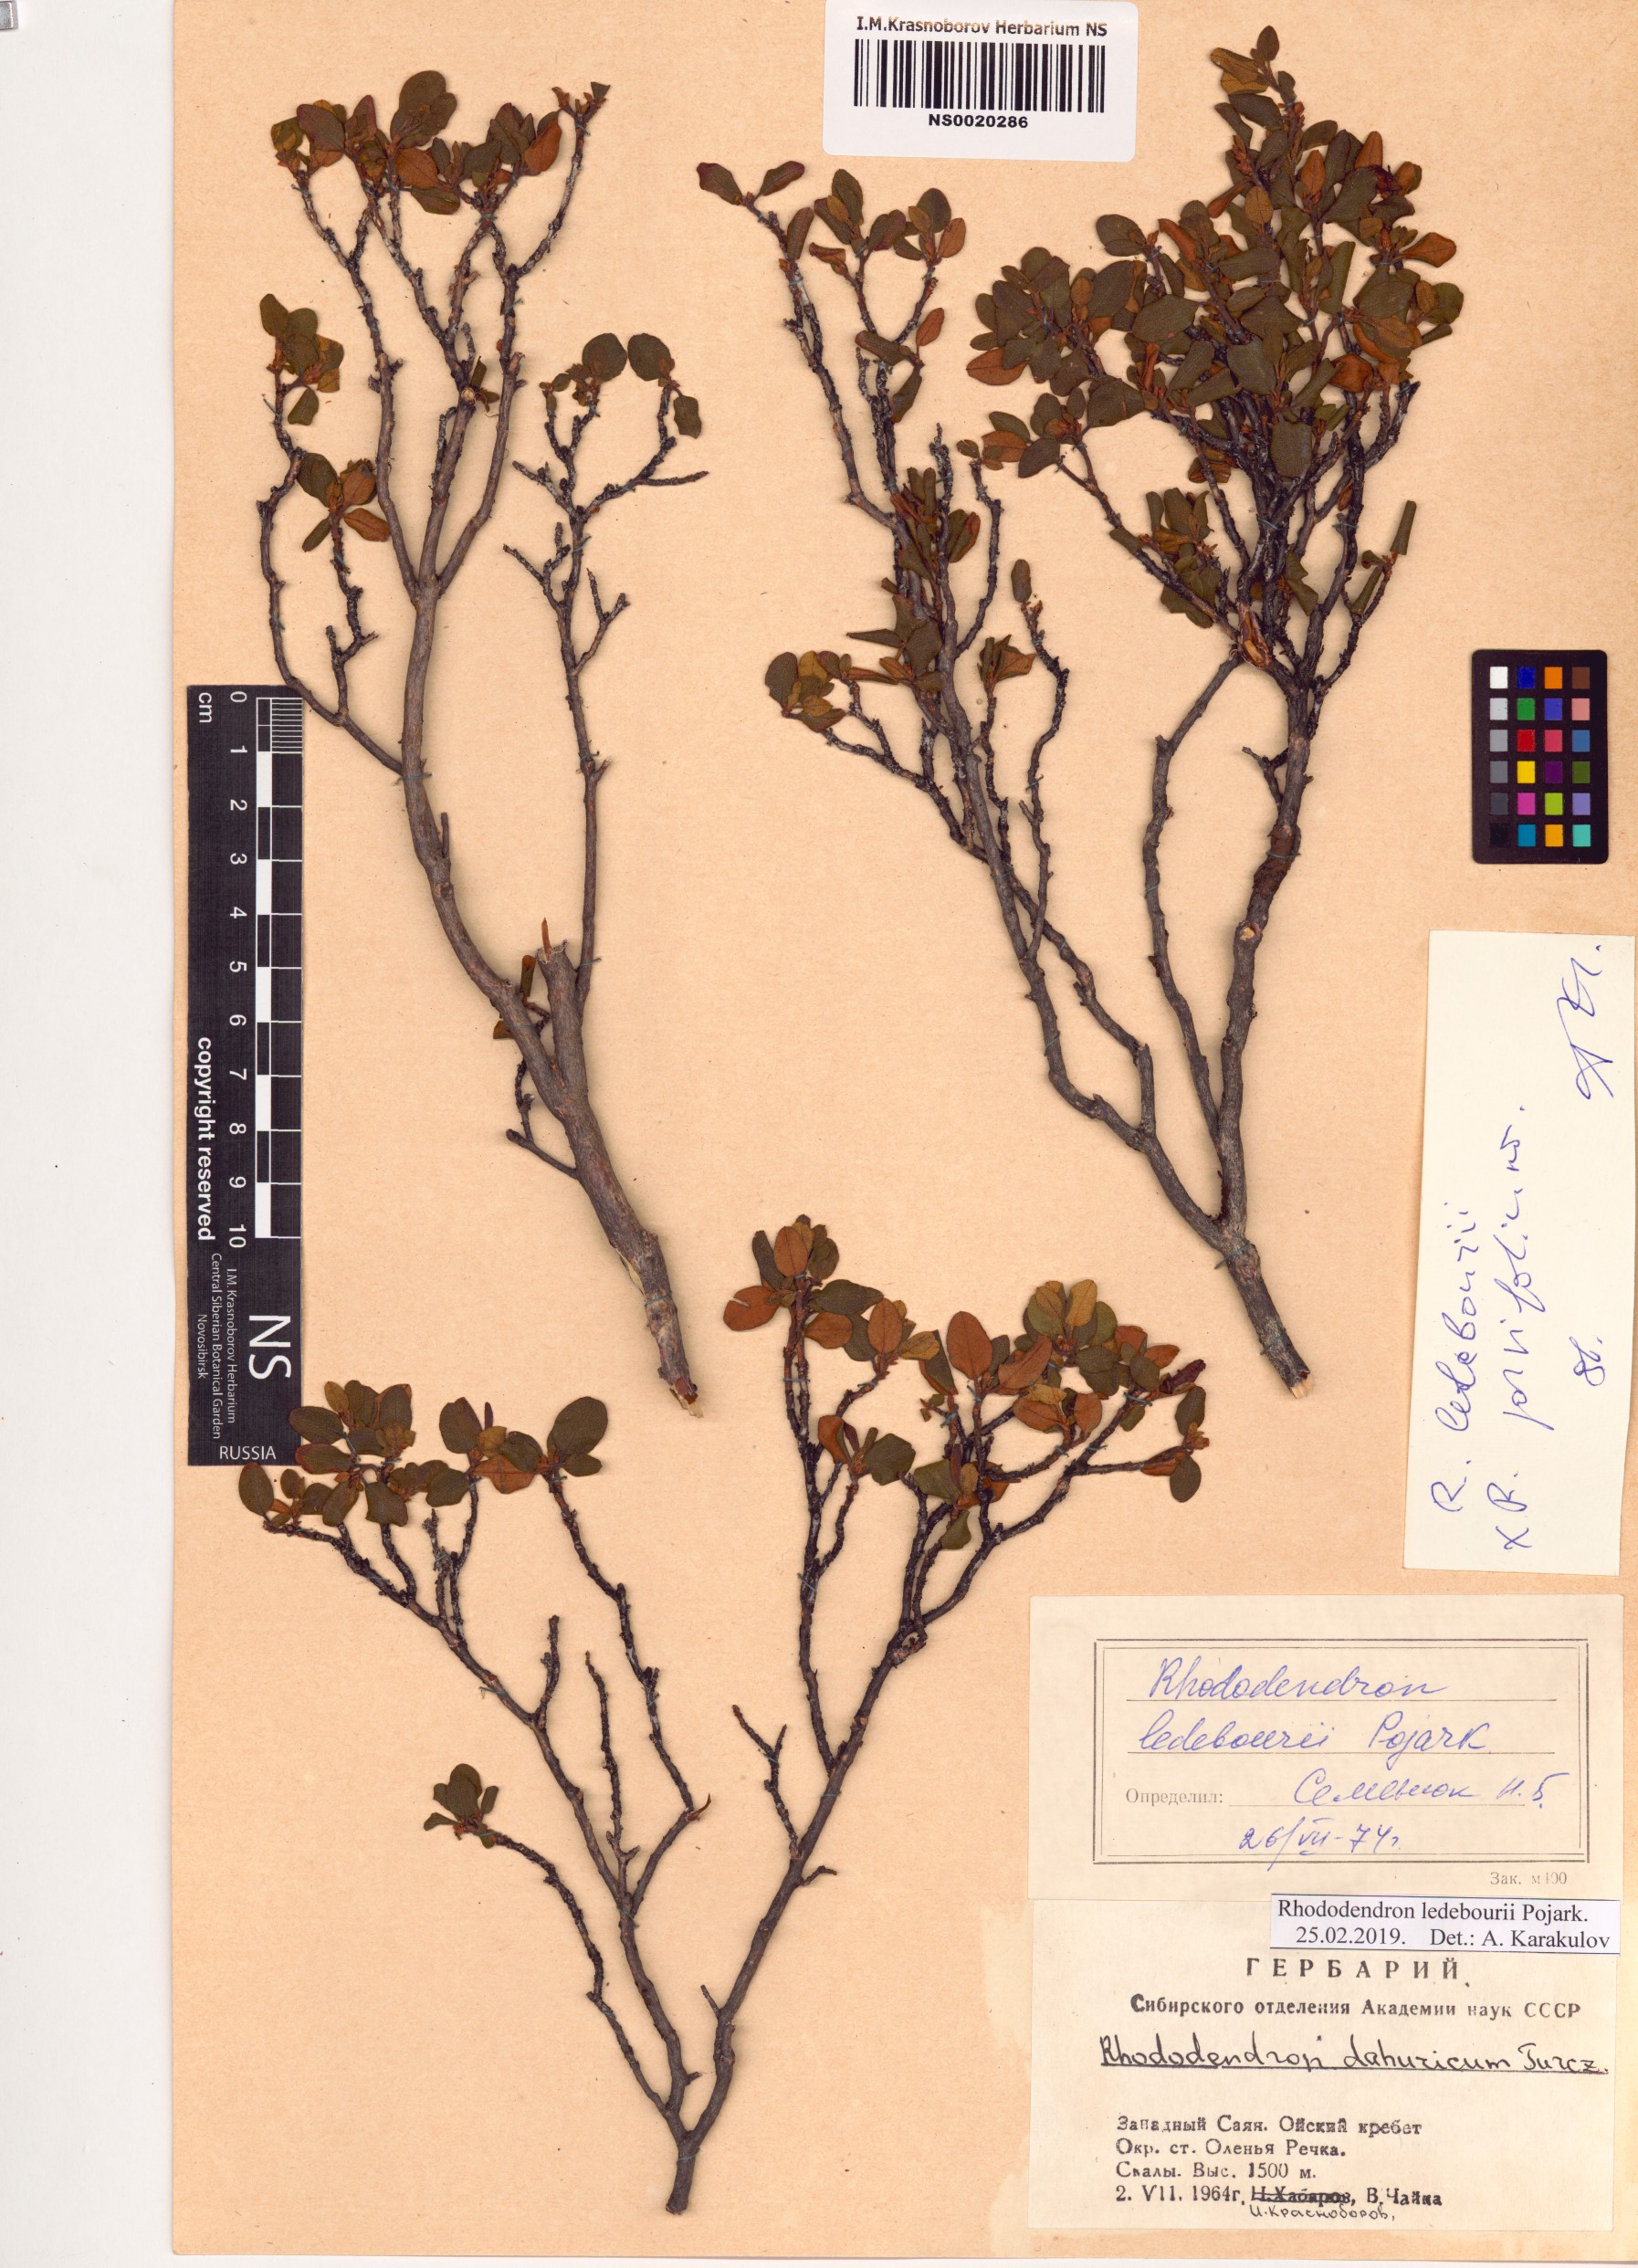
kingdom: Plantae
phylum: Tracheophyta
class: Magnoliopsida
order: Ericales
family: Ericaceae
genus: Rhododendron
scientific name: Rhododendron dauricum
